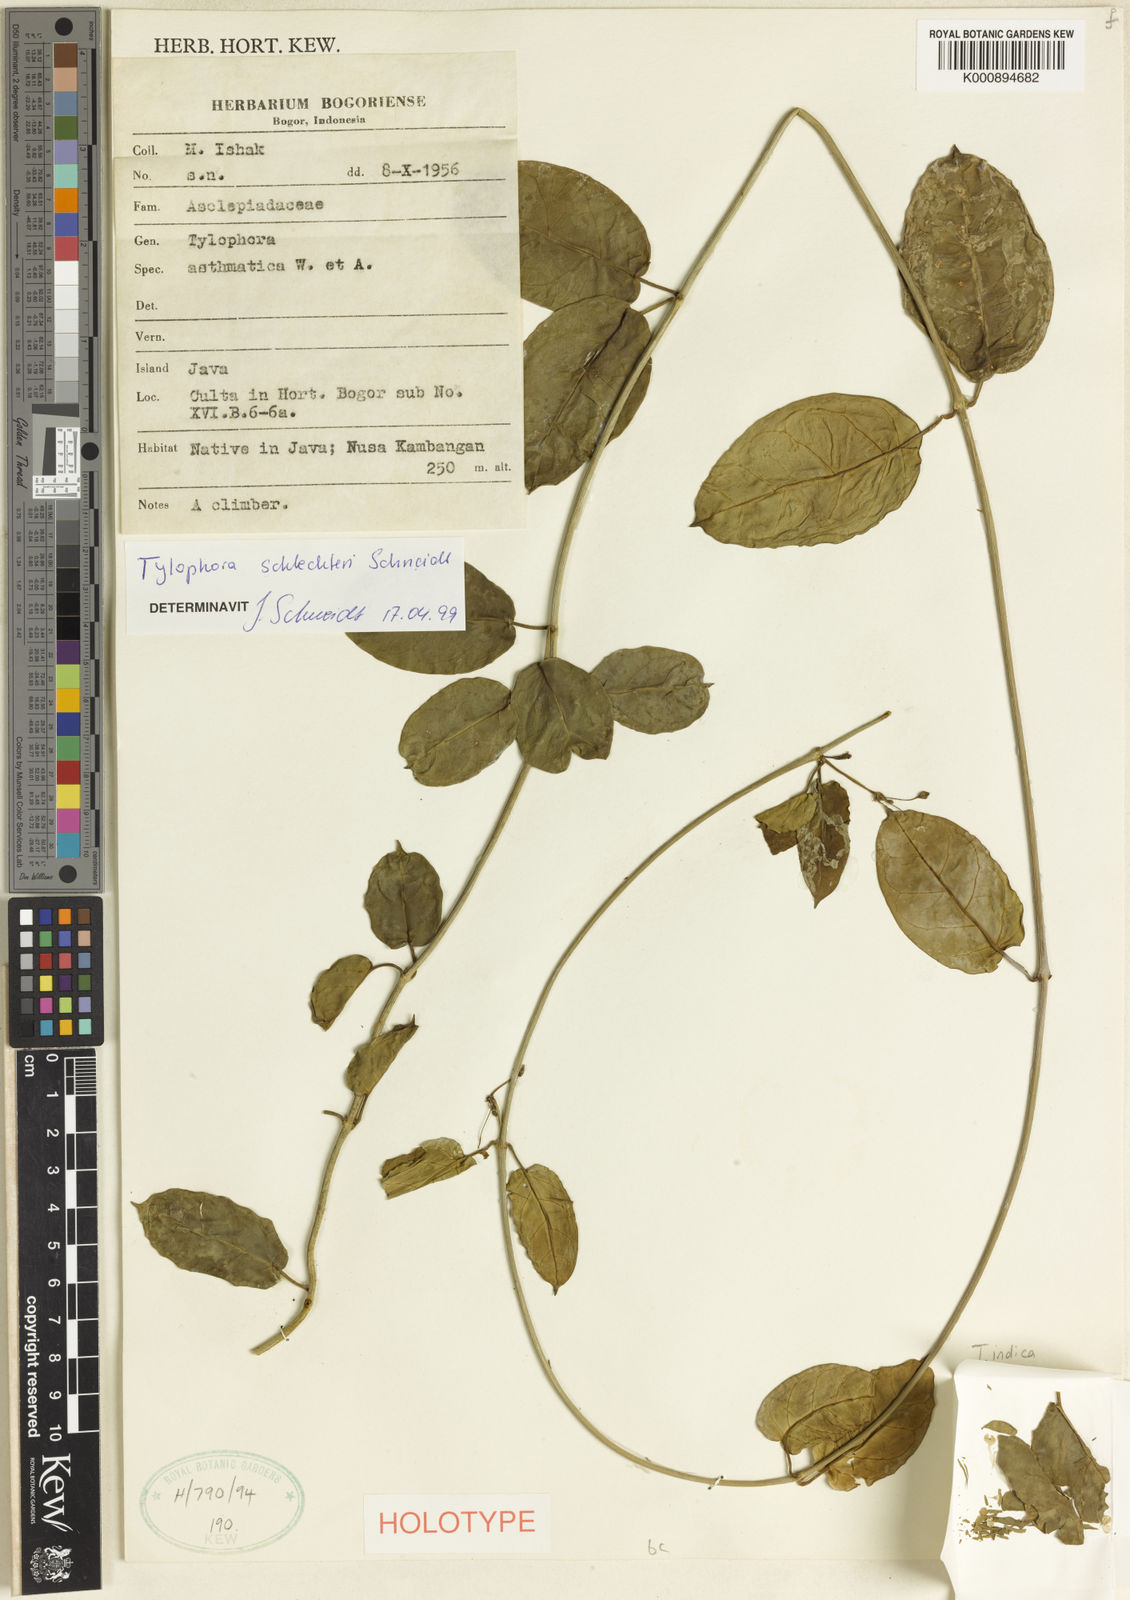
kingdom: Plantae
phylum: Tracheophyta
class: Magnoliopsida
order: Gentianales
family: Apocynaceae
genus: Vincetoxicum
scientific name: Vincetoxicum
